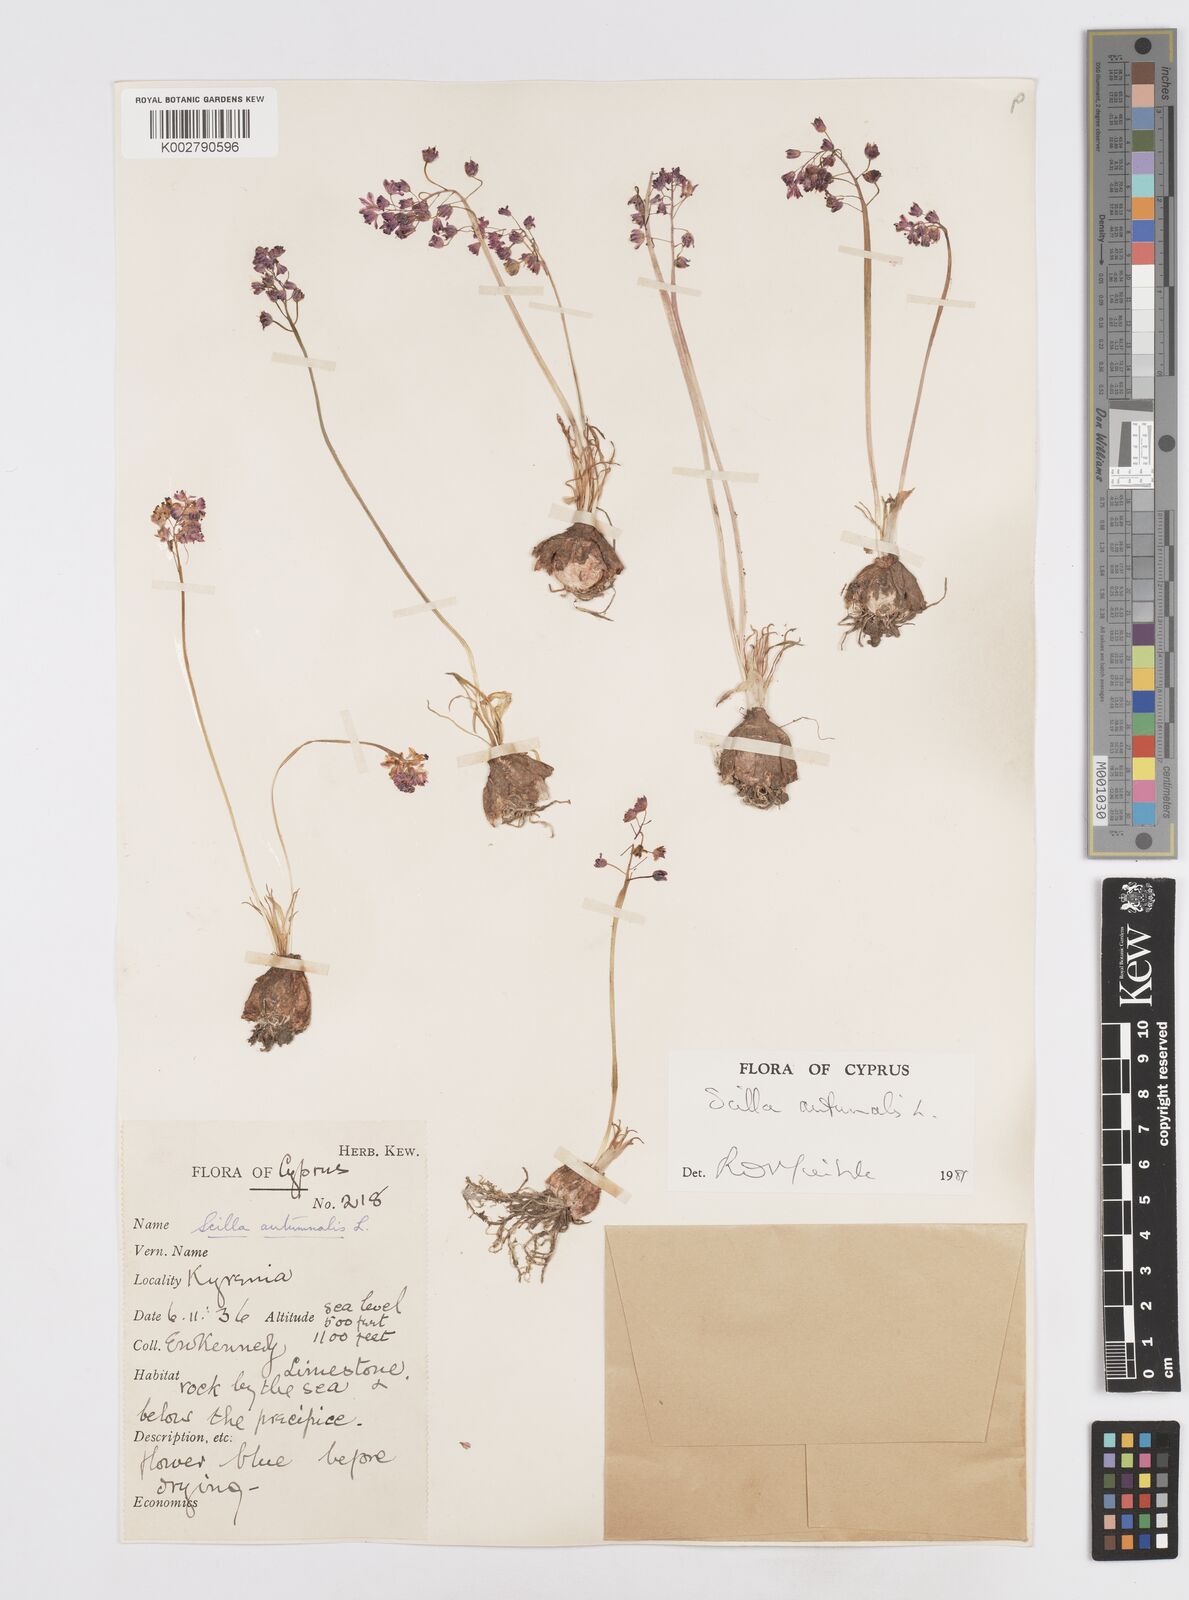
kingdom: Plantae
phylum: Tracheophyta
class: Liliopsida
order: Asparagales
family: Asparagaceae
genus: Prospero
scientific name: Prospero autumnale
